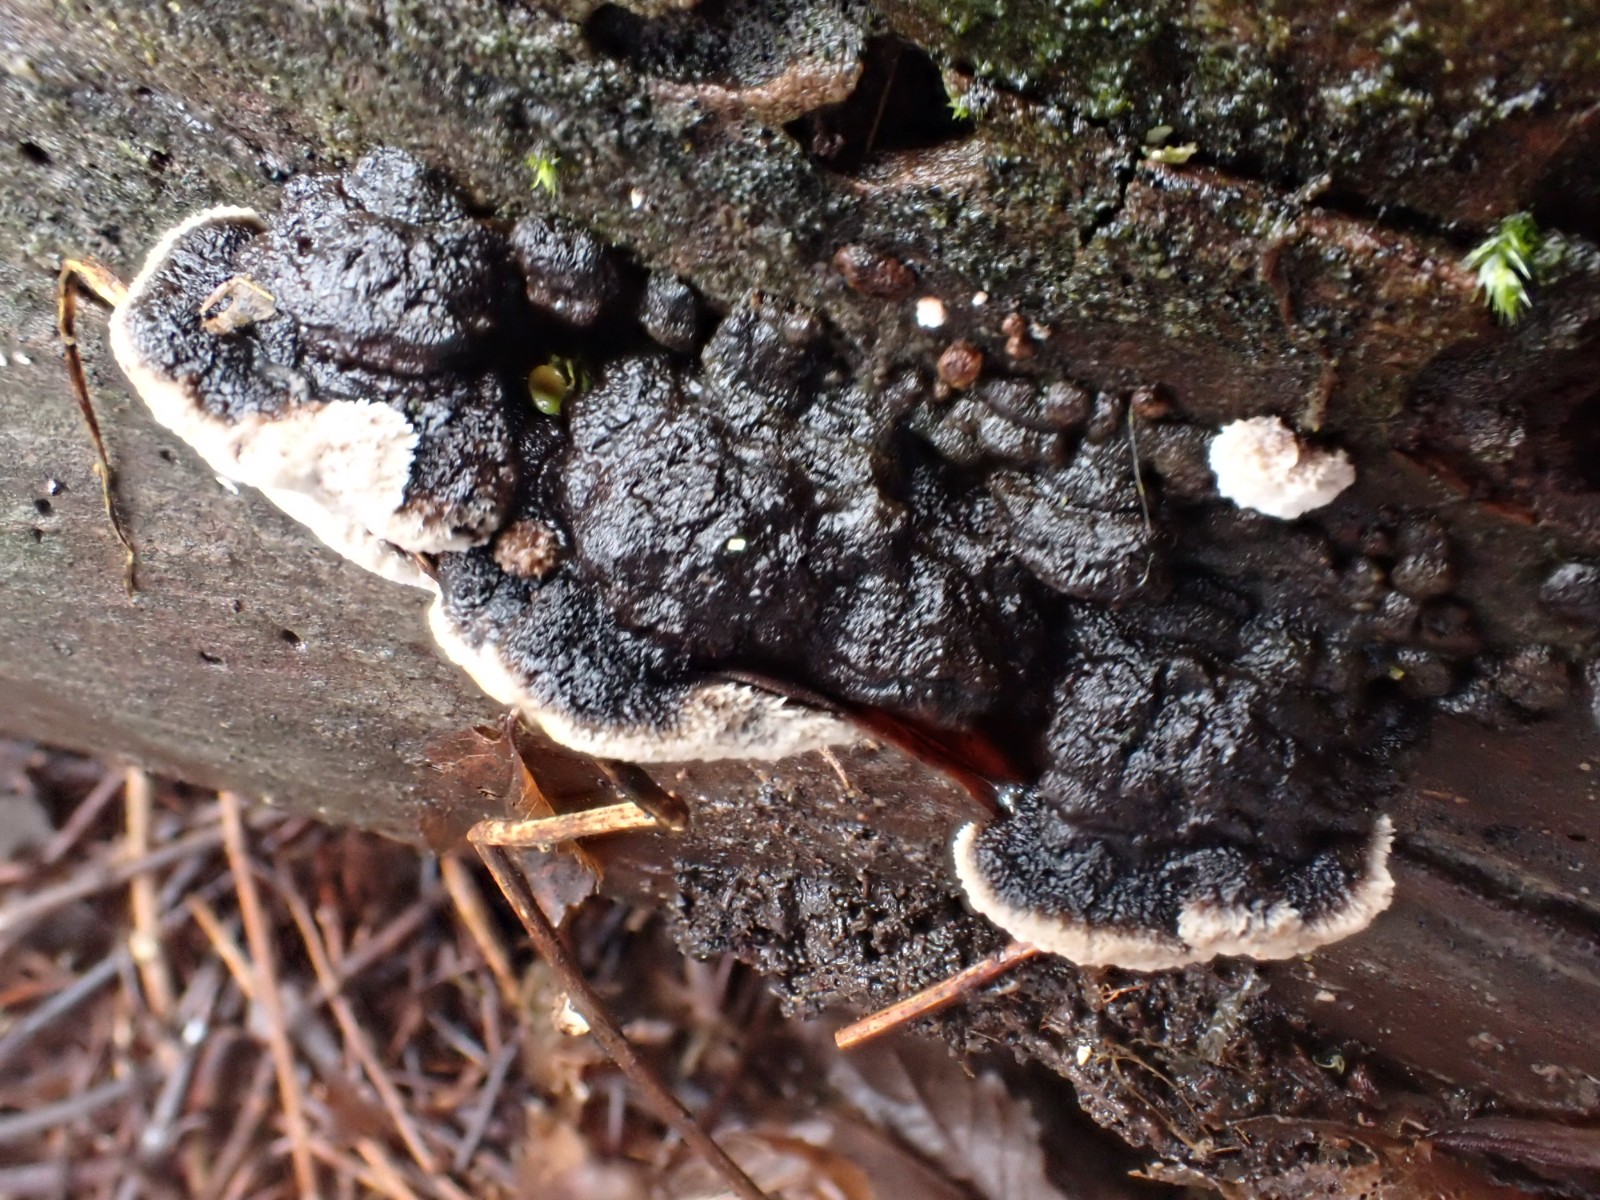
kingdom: Fungi
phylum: Basidiomycota
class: Agaricomycetes
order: Polyporales
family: Polyporaceae
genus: Podofomes
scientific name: Podofomes mollis
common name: blød begporesvamp
